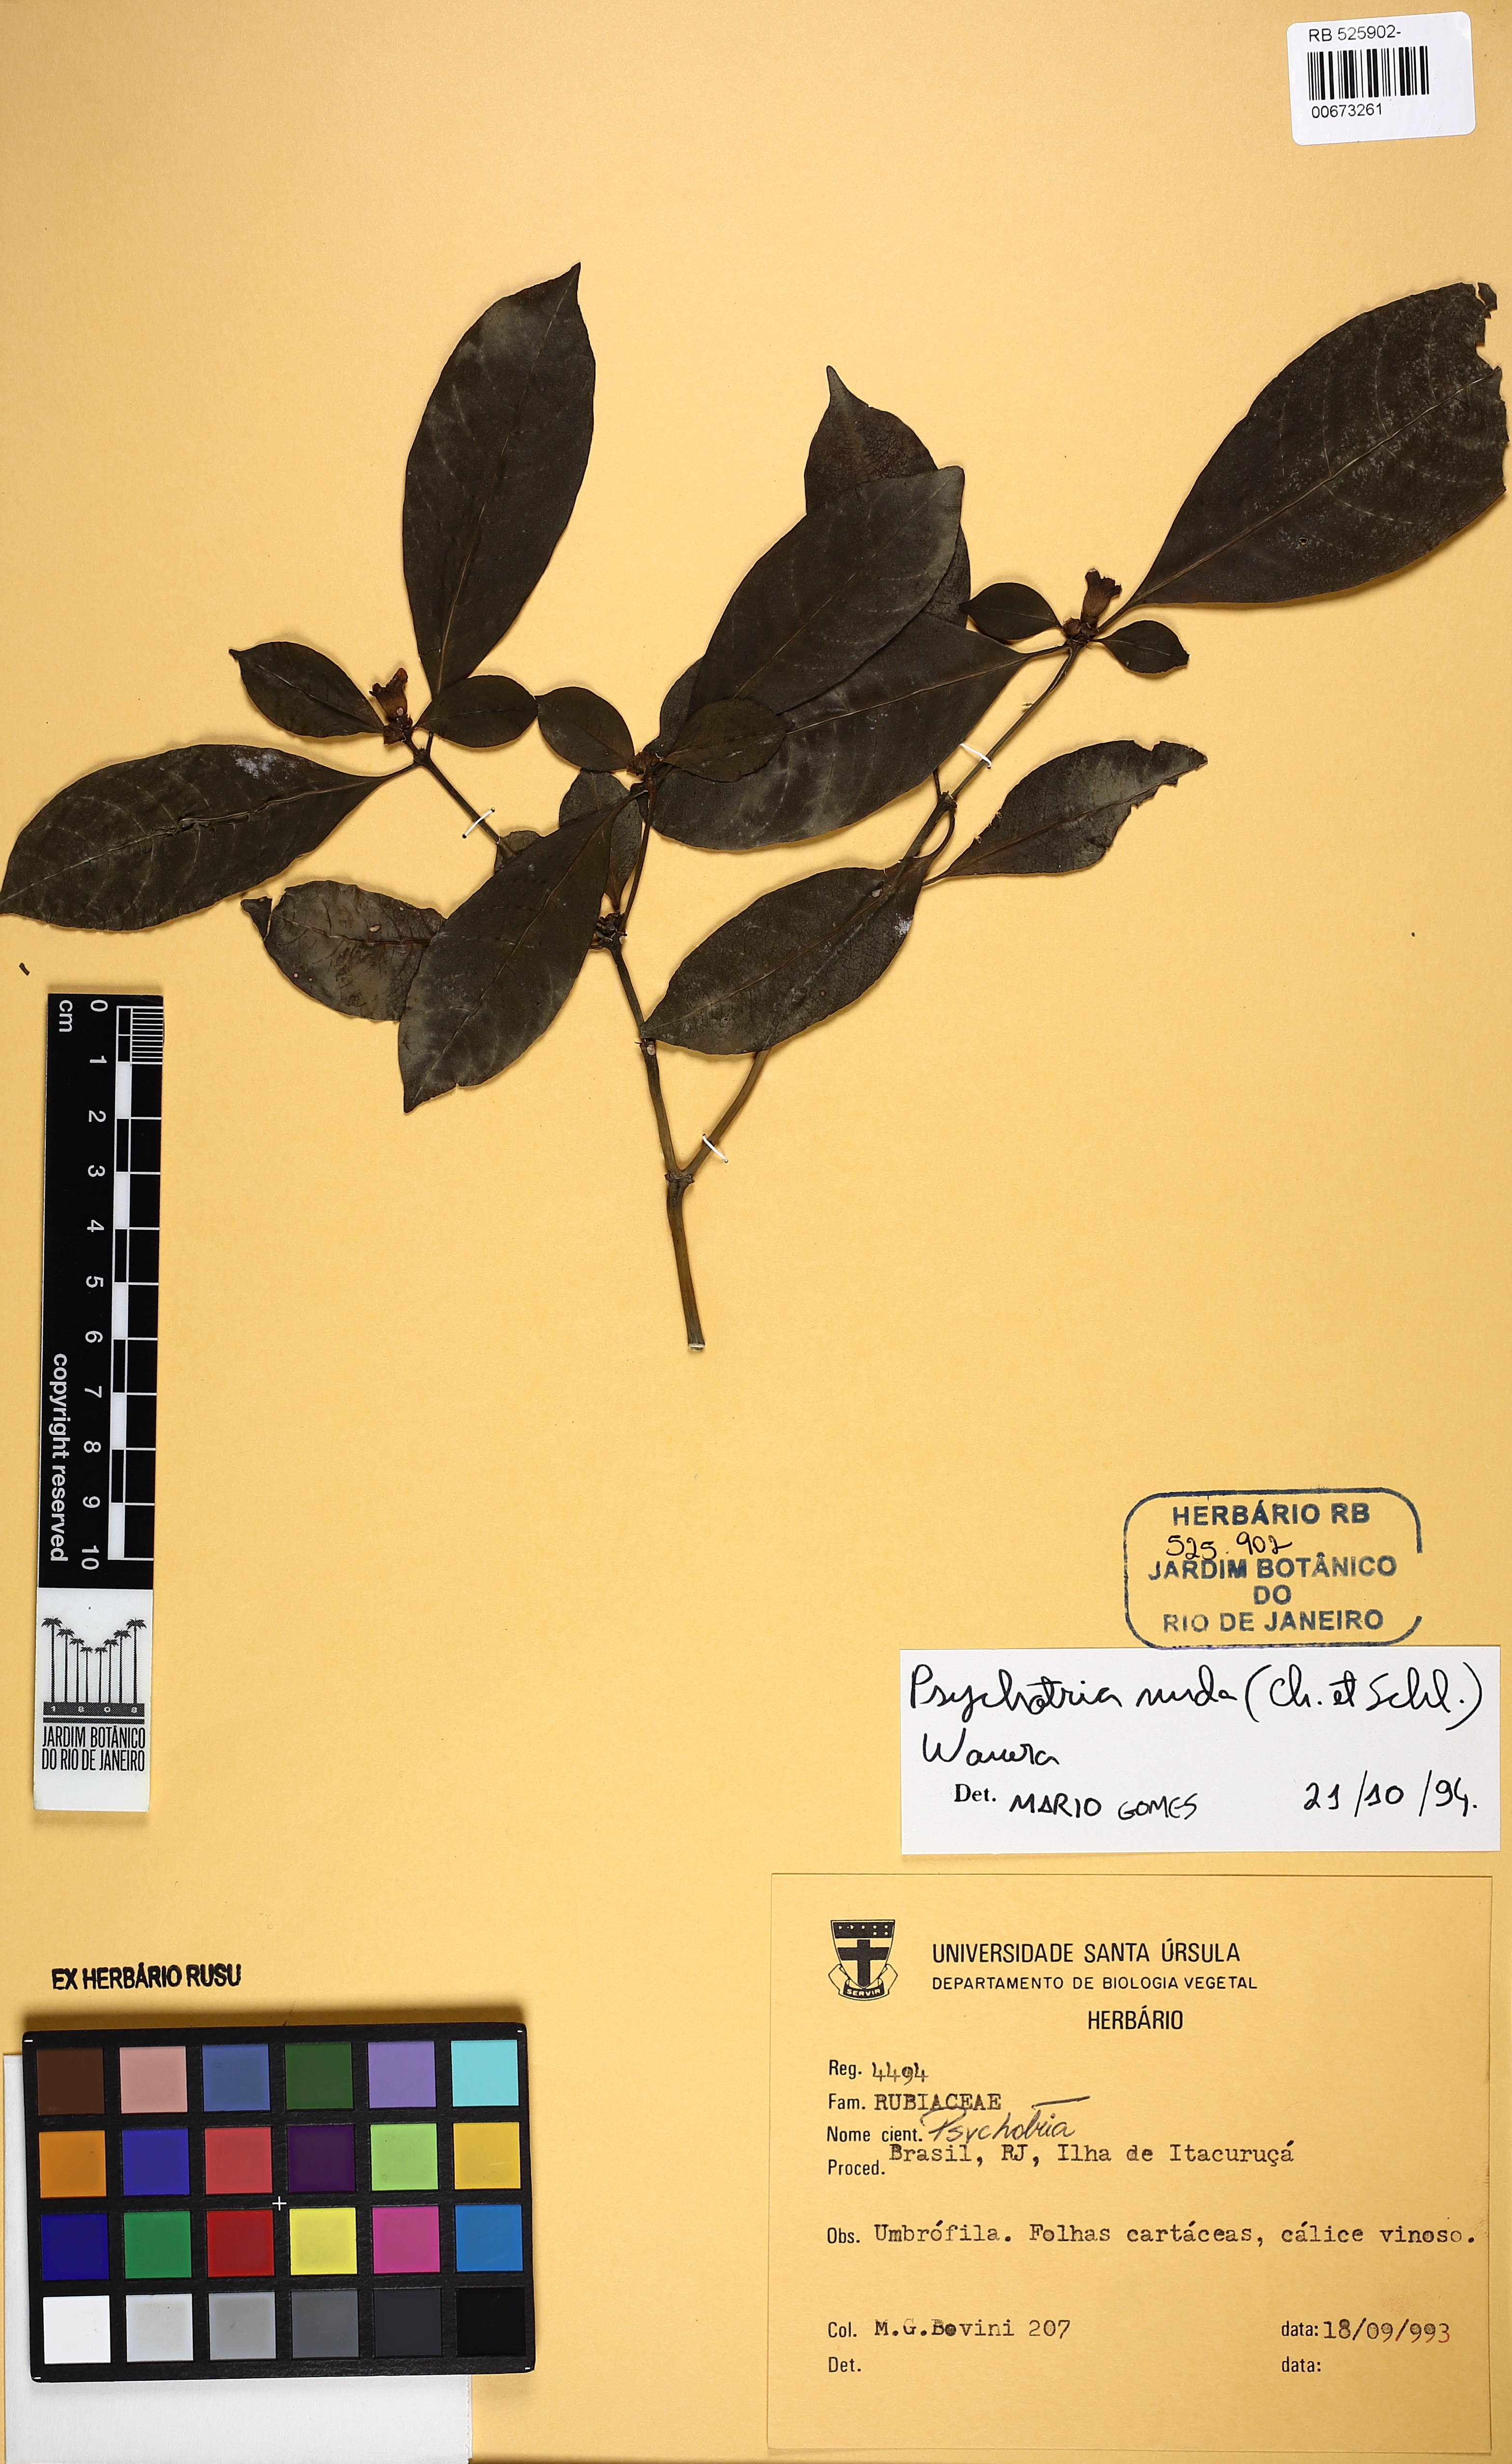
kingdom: Plantae
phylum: Tracheophyta
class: Magnoliopsida
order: Gentianales
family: Rubiaceae
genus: Psychotria
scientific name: Psychotria nuda
